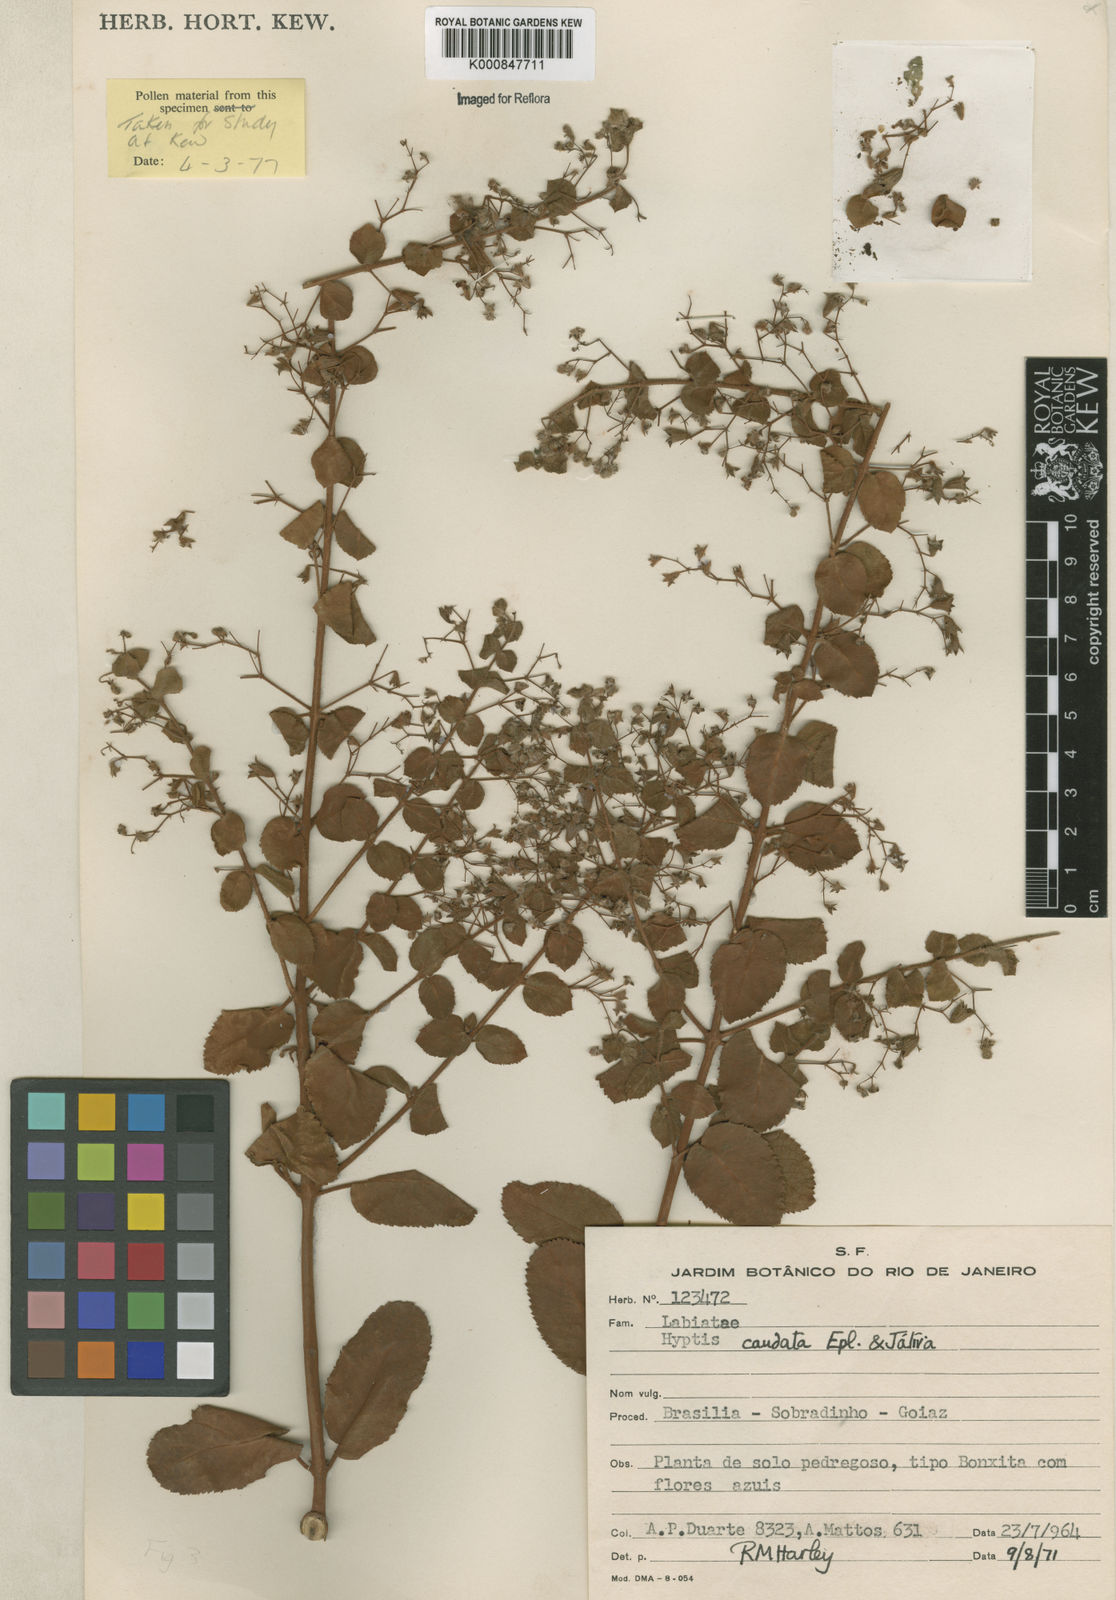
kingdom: Plantae
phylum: Tracheophyta
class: Magnoliopsida
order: Lamiales
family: Lamiaceae
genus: Hyptidendron
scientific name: Hyptidendron
